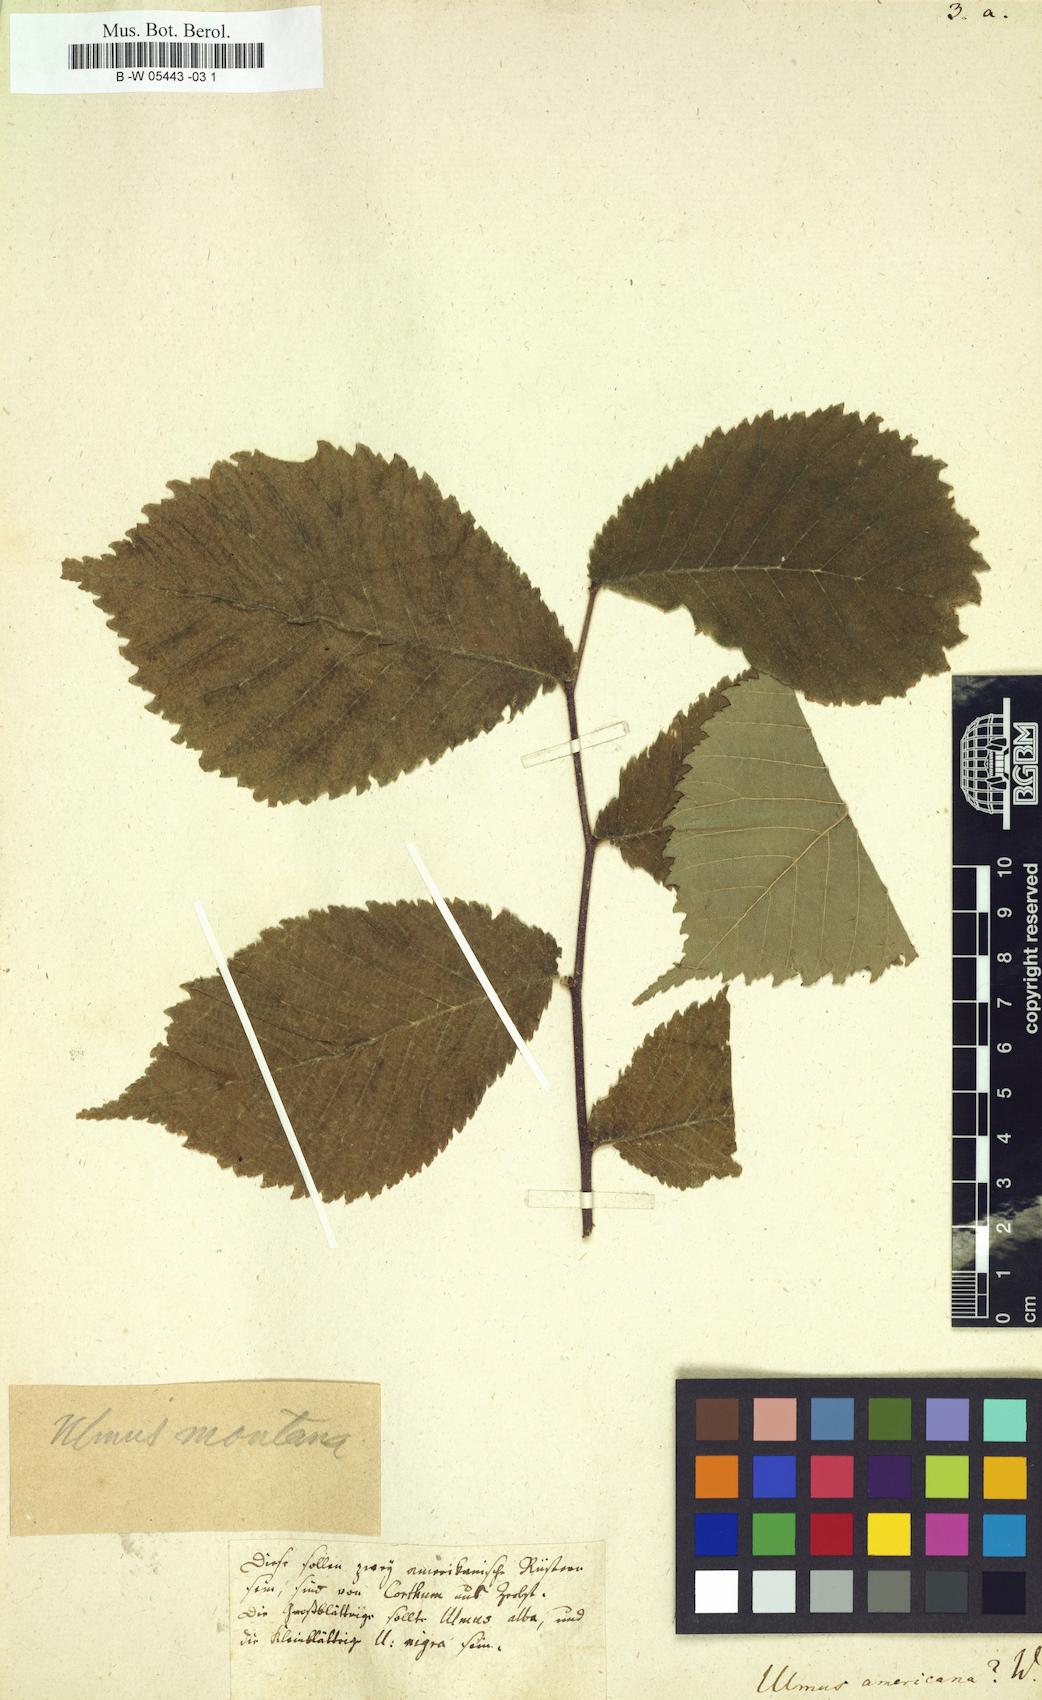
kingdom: Plantae
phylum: Tracheophyta
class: Magnoliopsida
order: Rosales
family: Ulmaceae
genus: Ulmus
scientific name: Ulmus americana
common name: American elm
